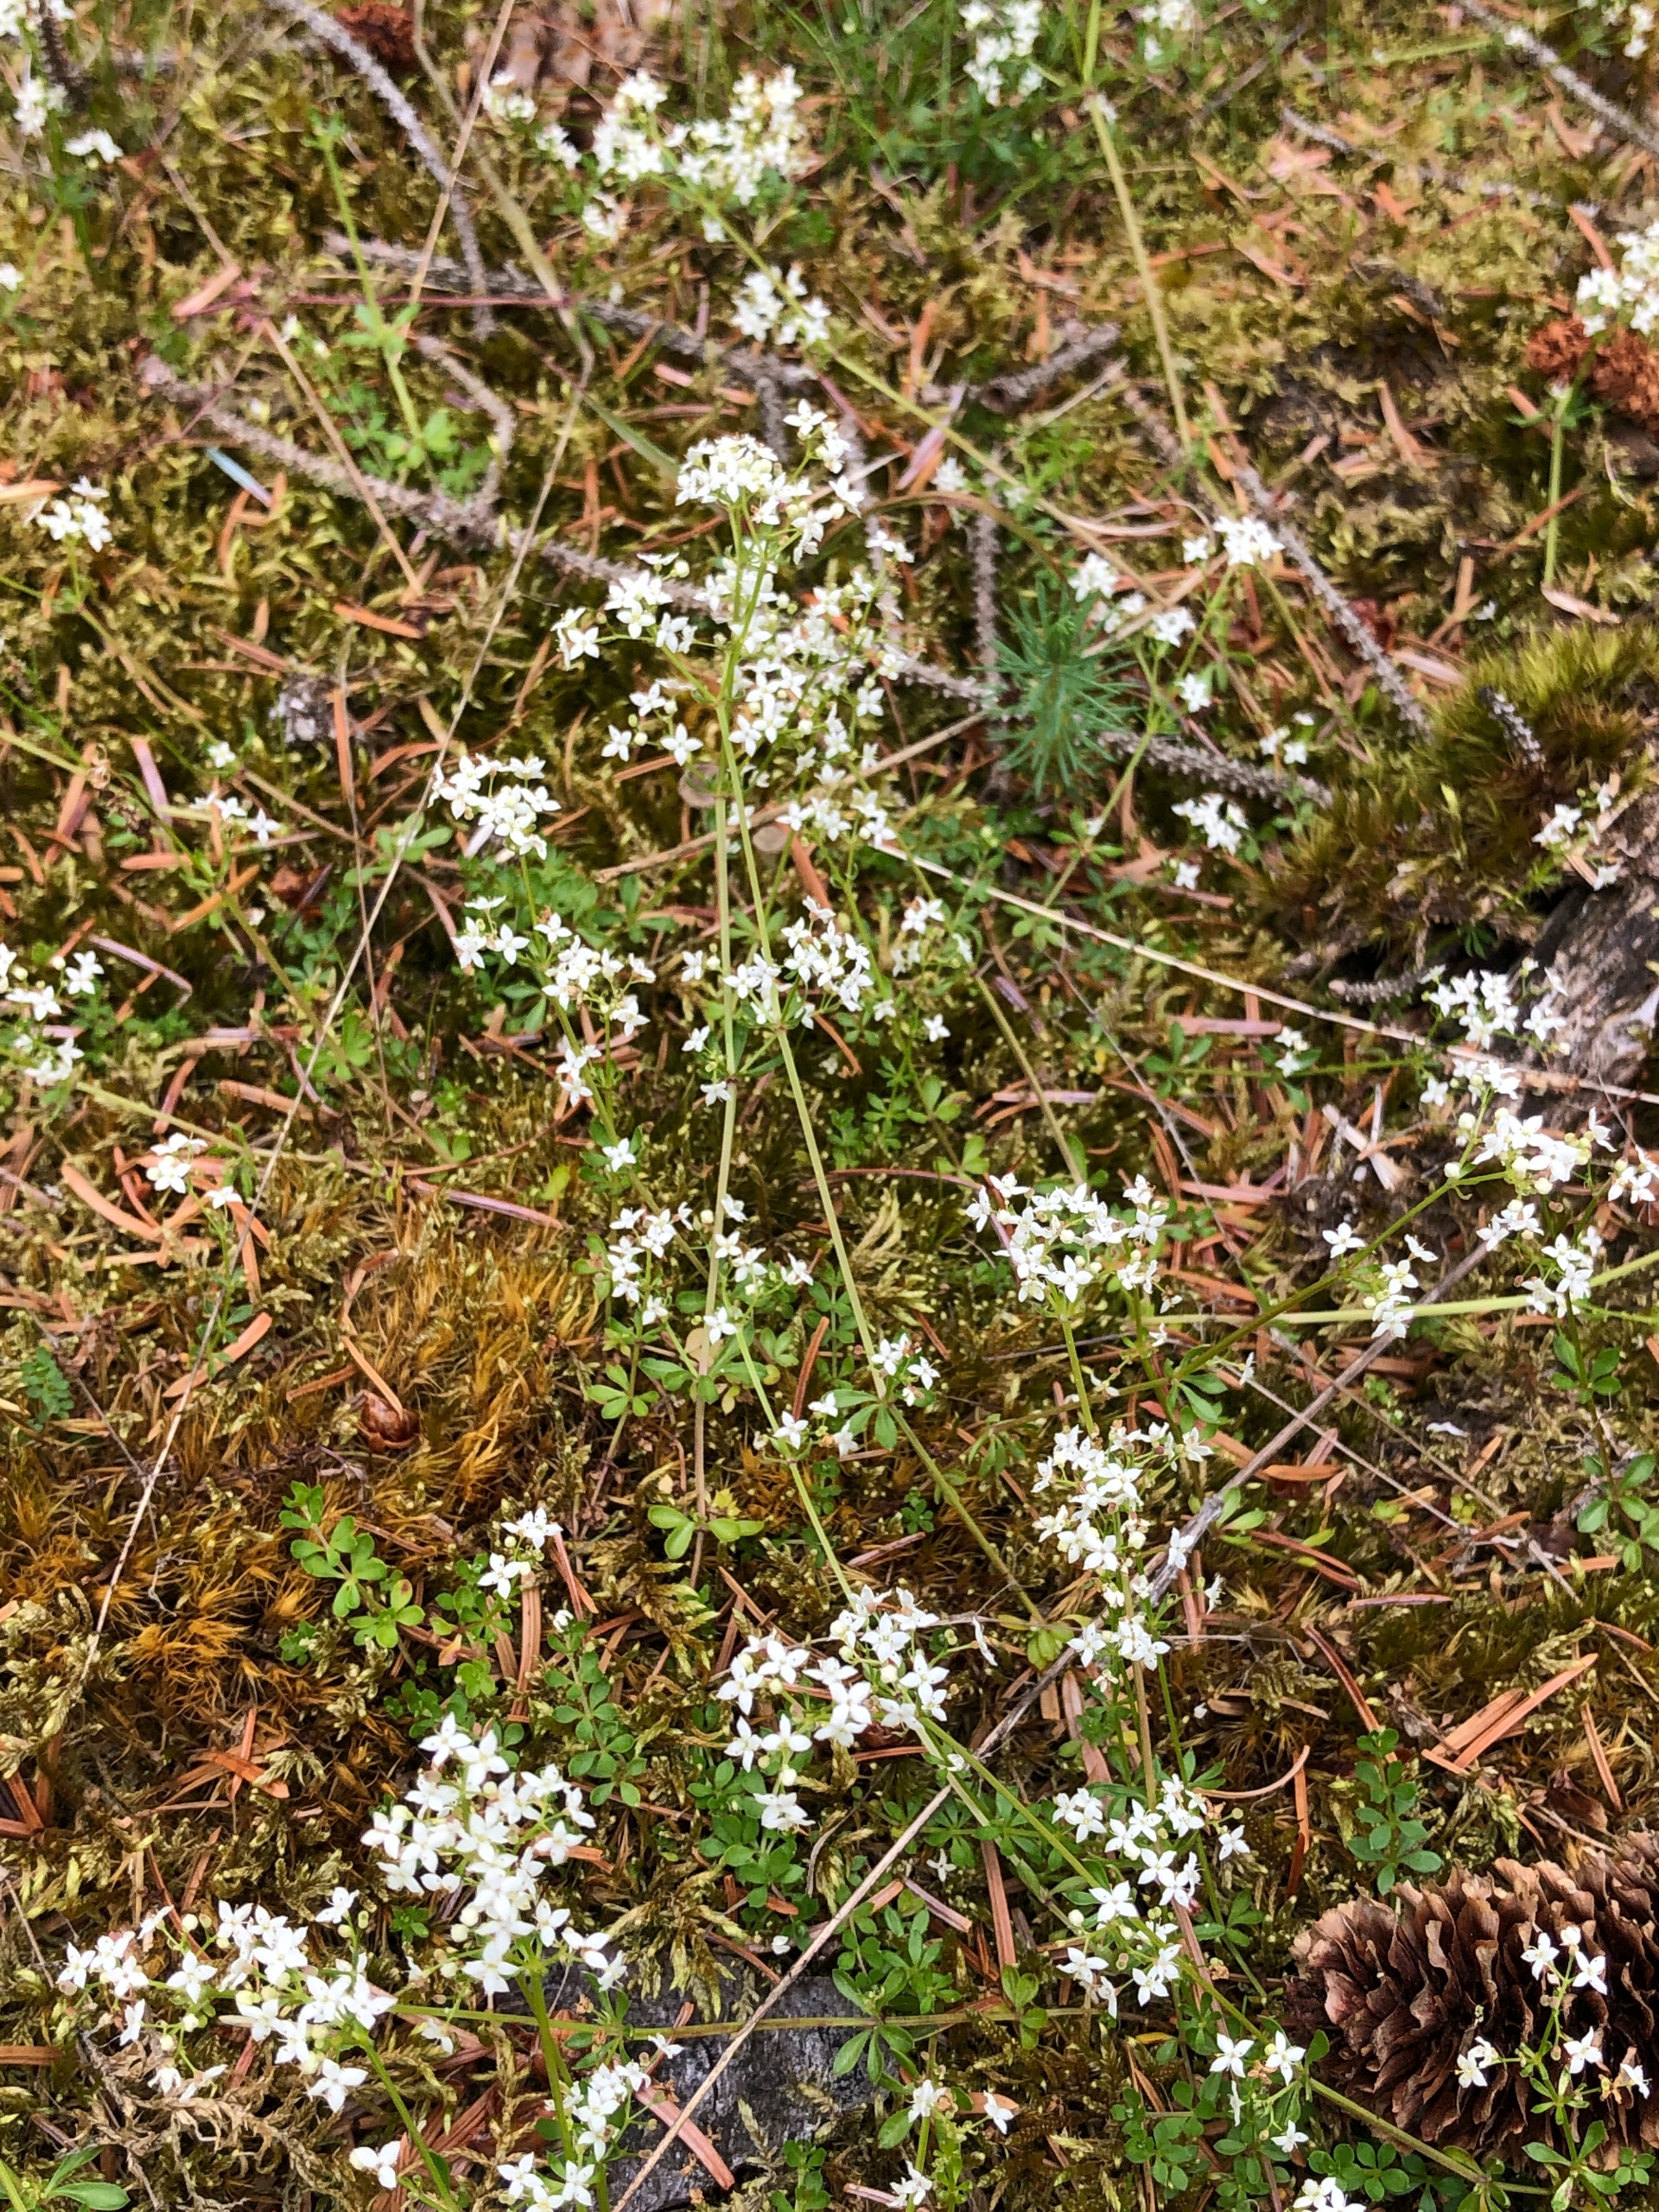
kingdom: Plantae
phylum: Tracheophyta
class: Magnoliopsida
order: Gentianales
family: Rubiaceae
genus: Galium
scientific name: Galium saxatile
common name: Lyng-snerre
